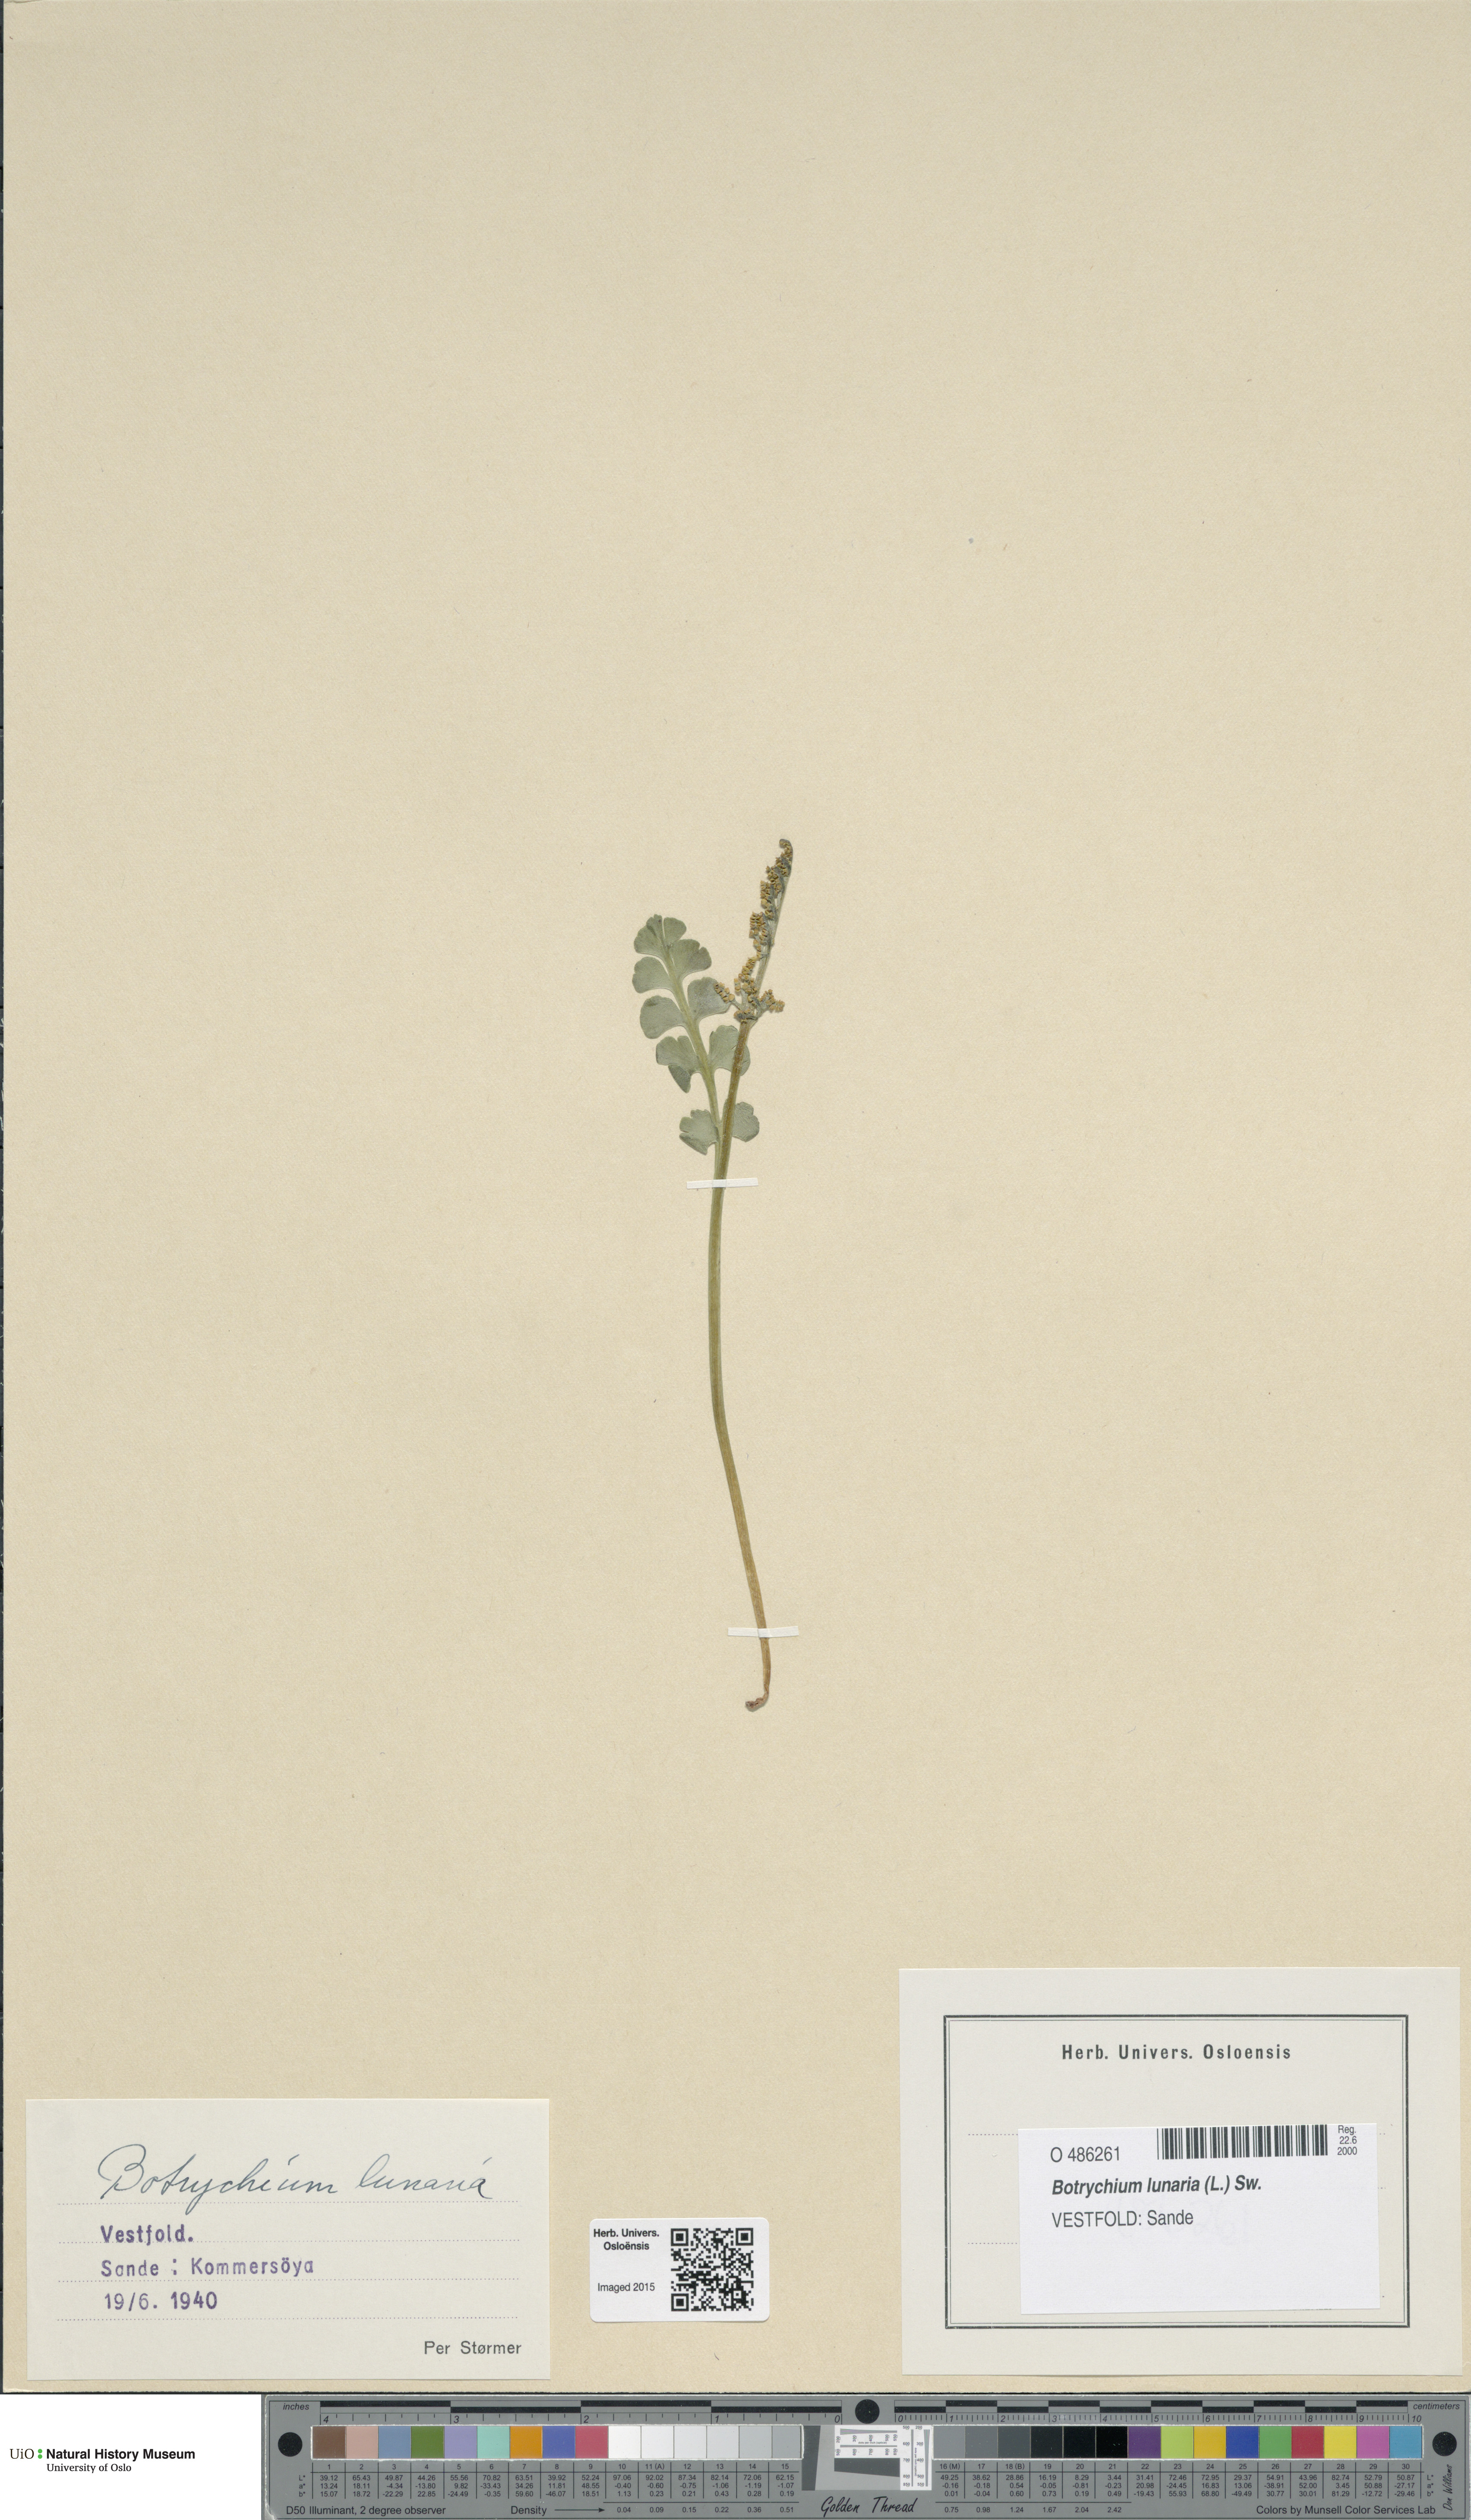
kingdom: Plantae
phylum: Tracheophyta
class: Polypodiopsida
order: Ophioglossales
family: Ophioglossaceae
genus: Botrychium
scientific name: Botrychium lunaria
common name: Moonwort
